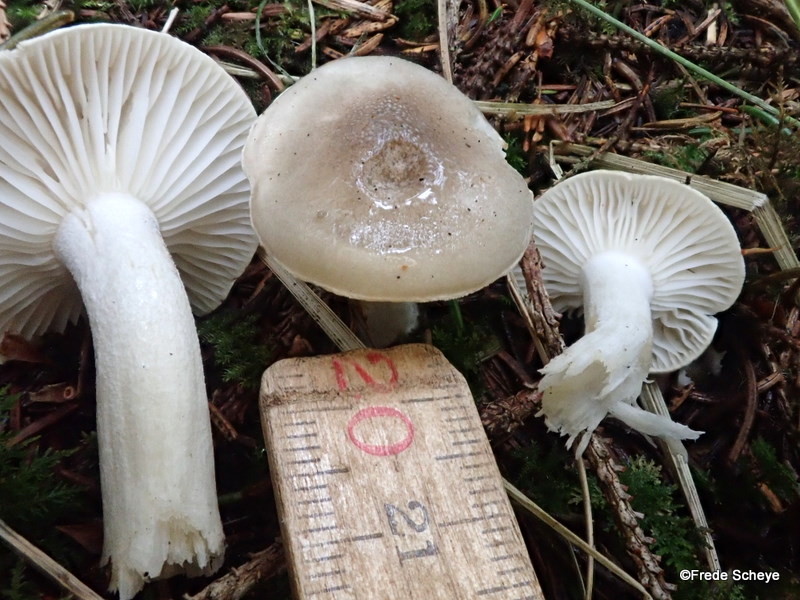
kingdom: Fungi
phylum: Basidiomycota
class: Agaricomycetes
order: Agaricales
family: Hygrophoraceae
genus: Hygrophorus
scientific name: Hygrophorus agathosmus
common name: vellugtende sneglehat
